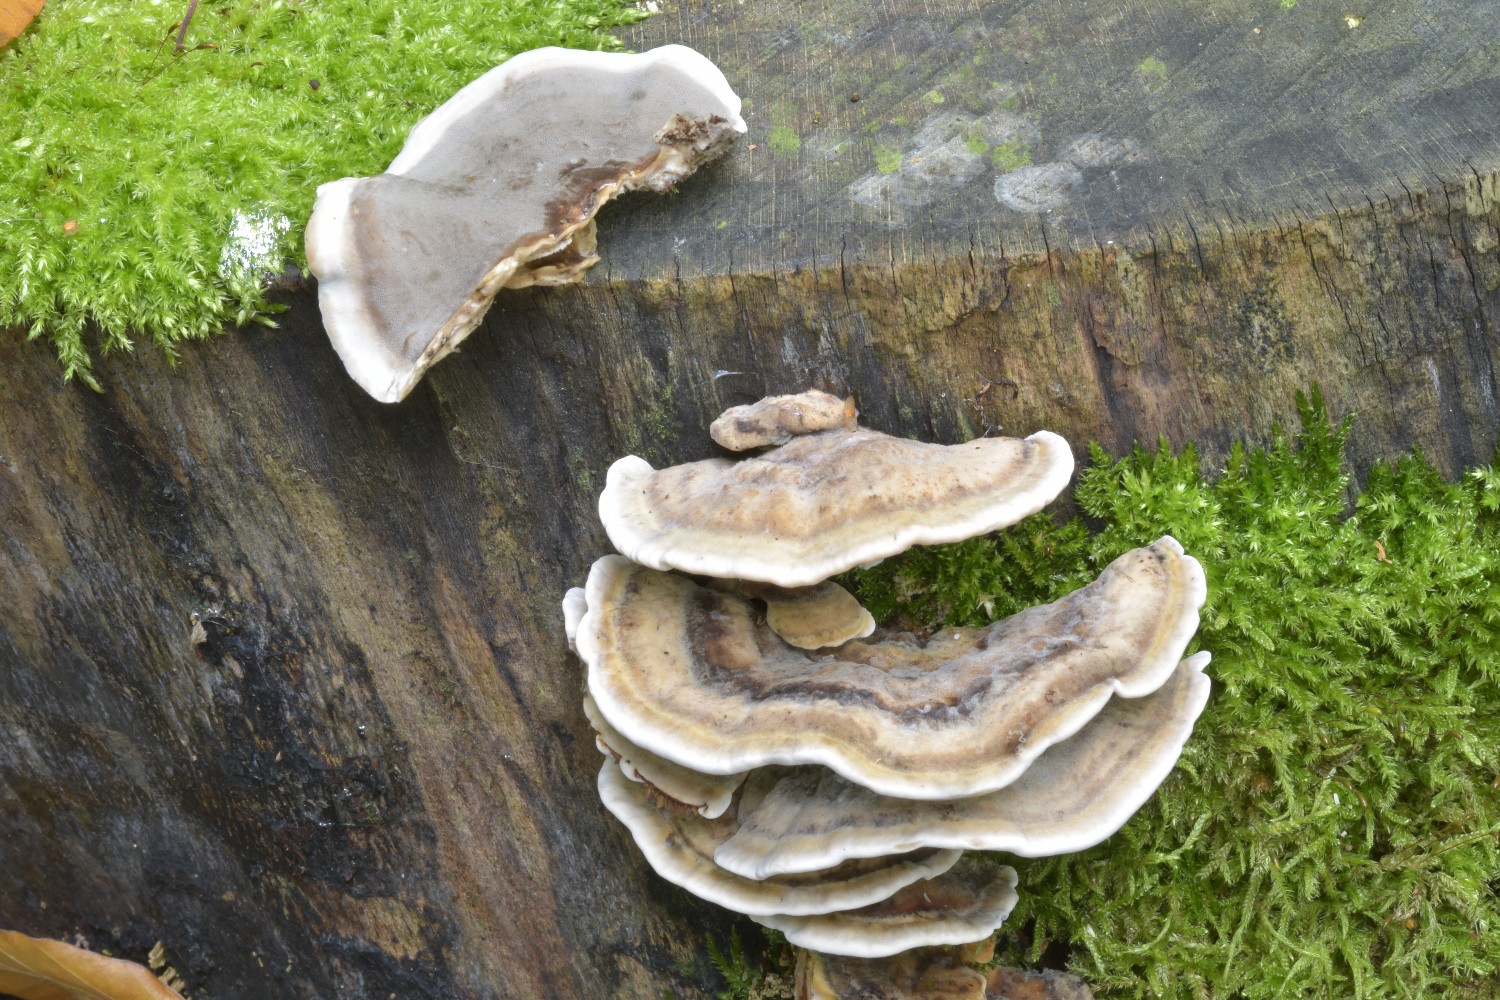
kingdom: Fungi
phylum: Basidiomycota
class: Agaricomycetes
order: Polyporales
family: Phanerochaetaceae
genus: Bjerkandera
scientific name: Bjerkandera adusta
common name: sveden sodporesvamp
